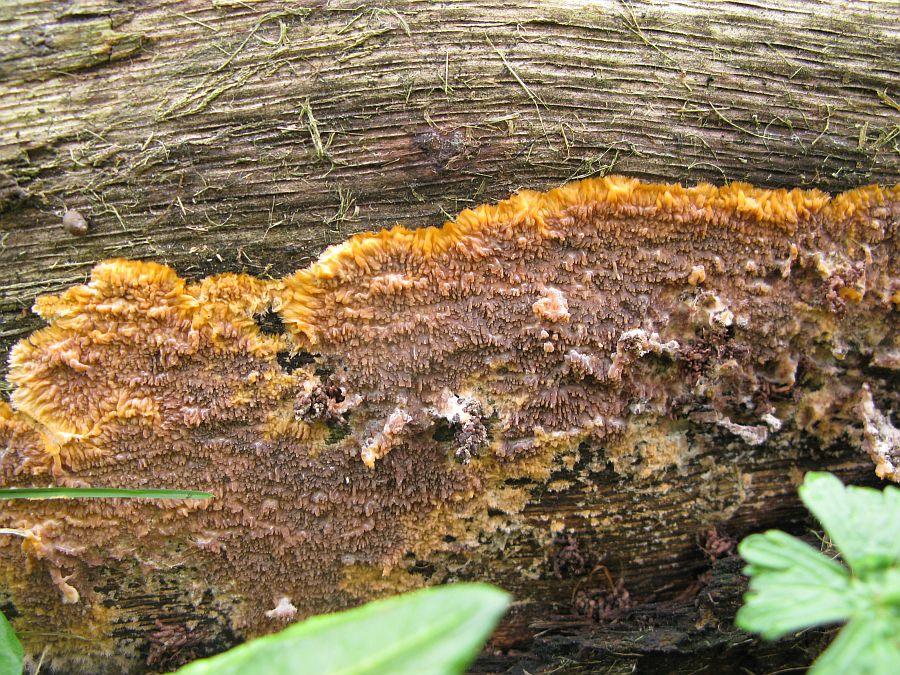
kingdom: Fungi
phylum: Basidiomycota
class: Agaricomycetes
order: Polyporales
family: Meruliaceae
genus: Phlebia
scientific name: Phlebia tremellosa
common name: bævrende åresvamp
